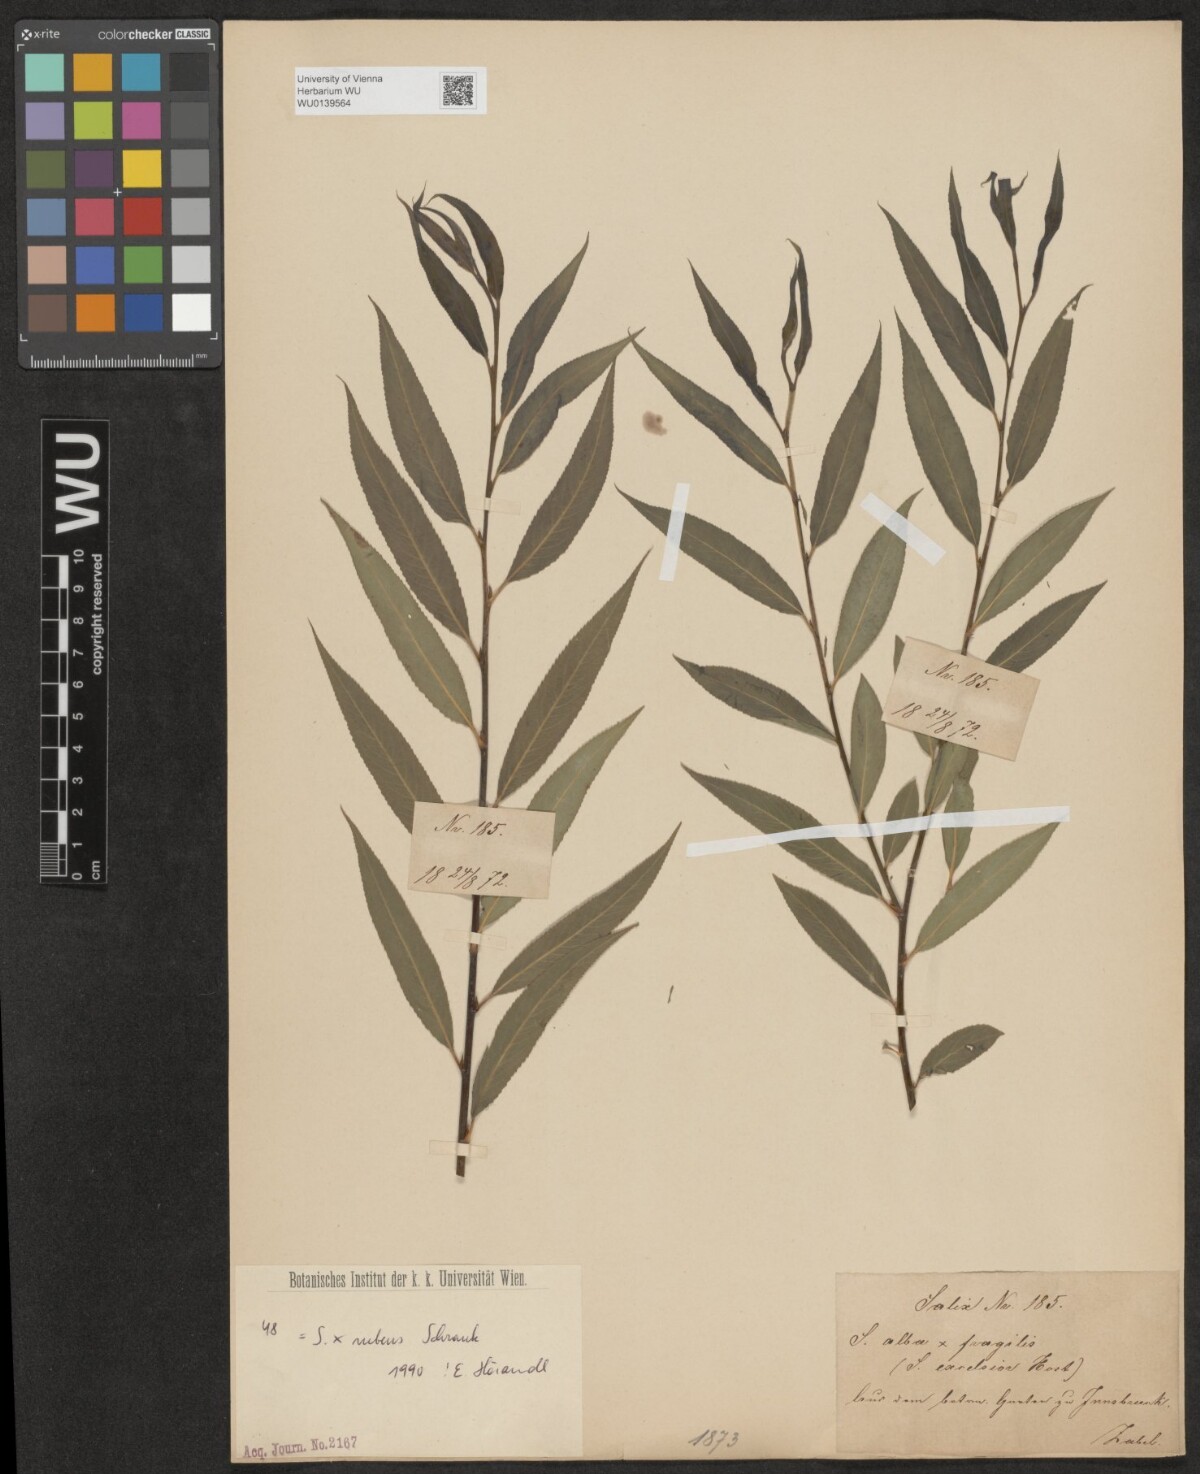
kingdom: Plantae
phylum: Tracheophyta
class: Magnoliopsida
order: Malpighiales
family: Salicaceae
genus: Salix
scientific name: Salix rubens
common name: Hybrid crack willow
